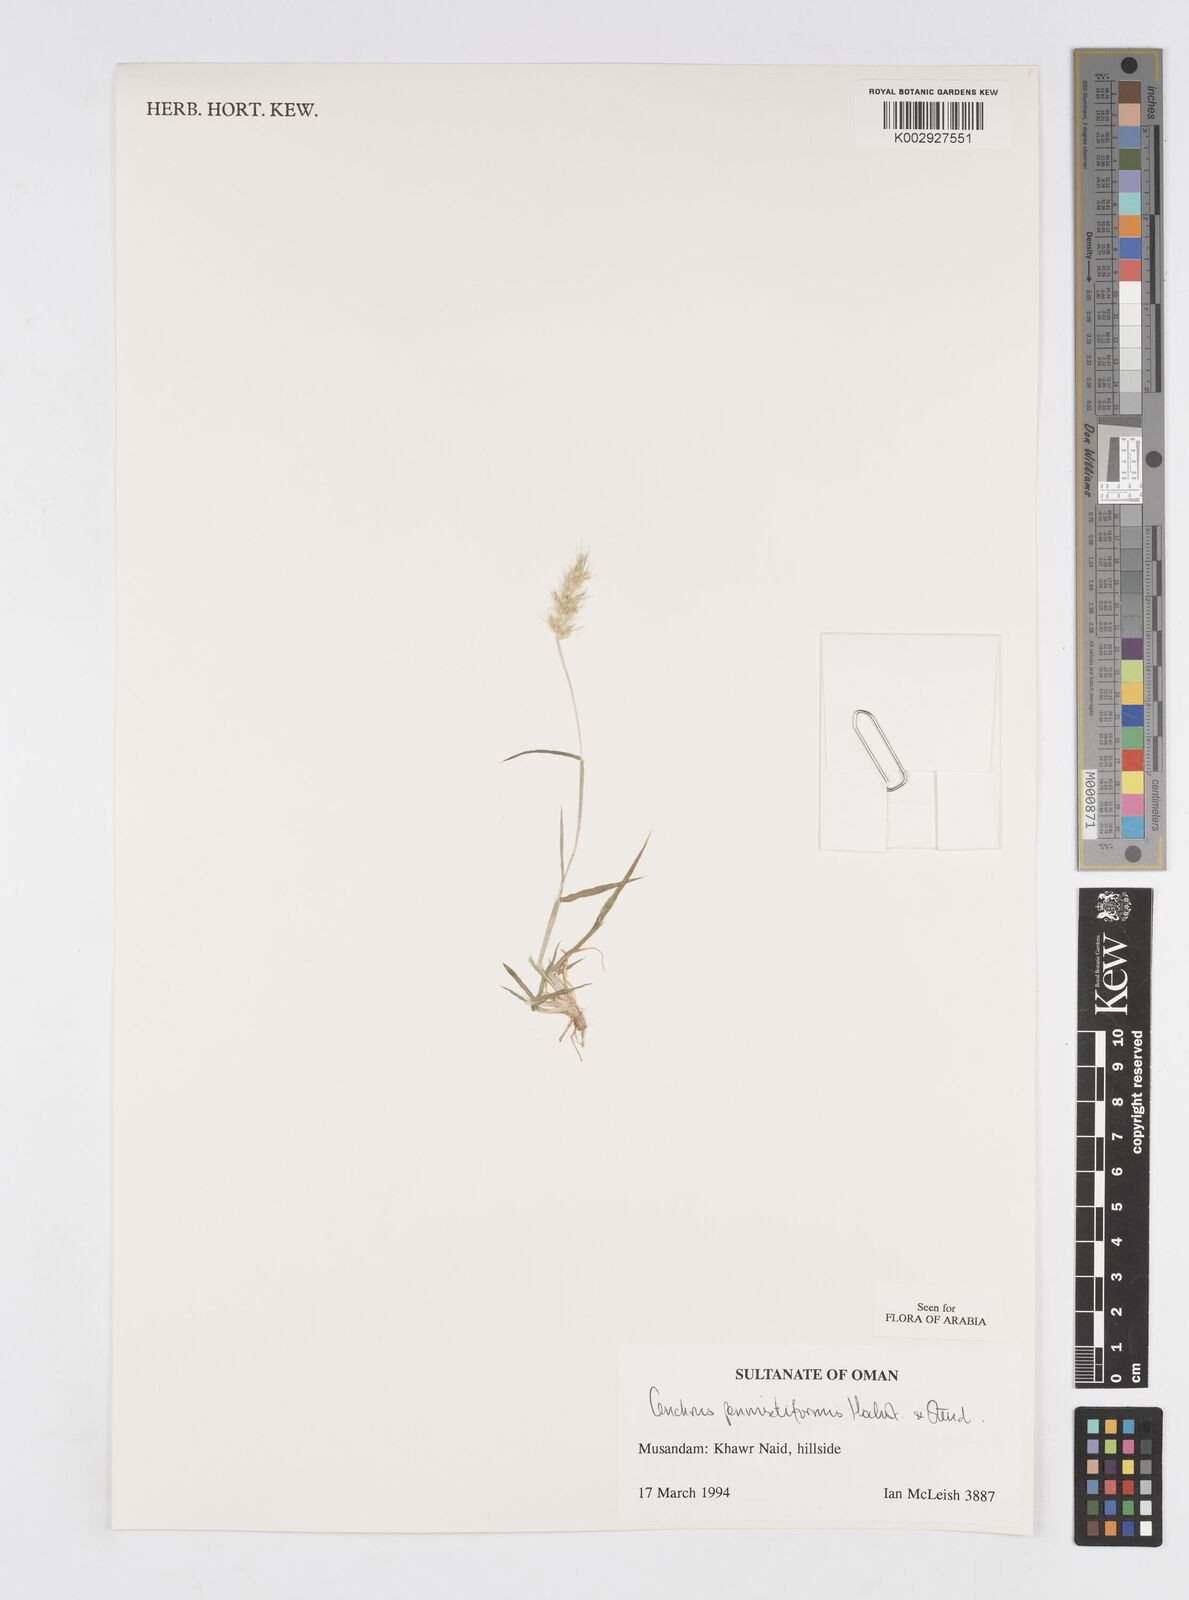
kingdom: Plantae
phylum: Tracheophyta
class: Liliopsida
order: Poales
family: Poaceae
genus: Cenchrus
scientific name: Cenchrus pennisetiformis
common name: Cloncurry
